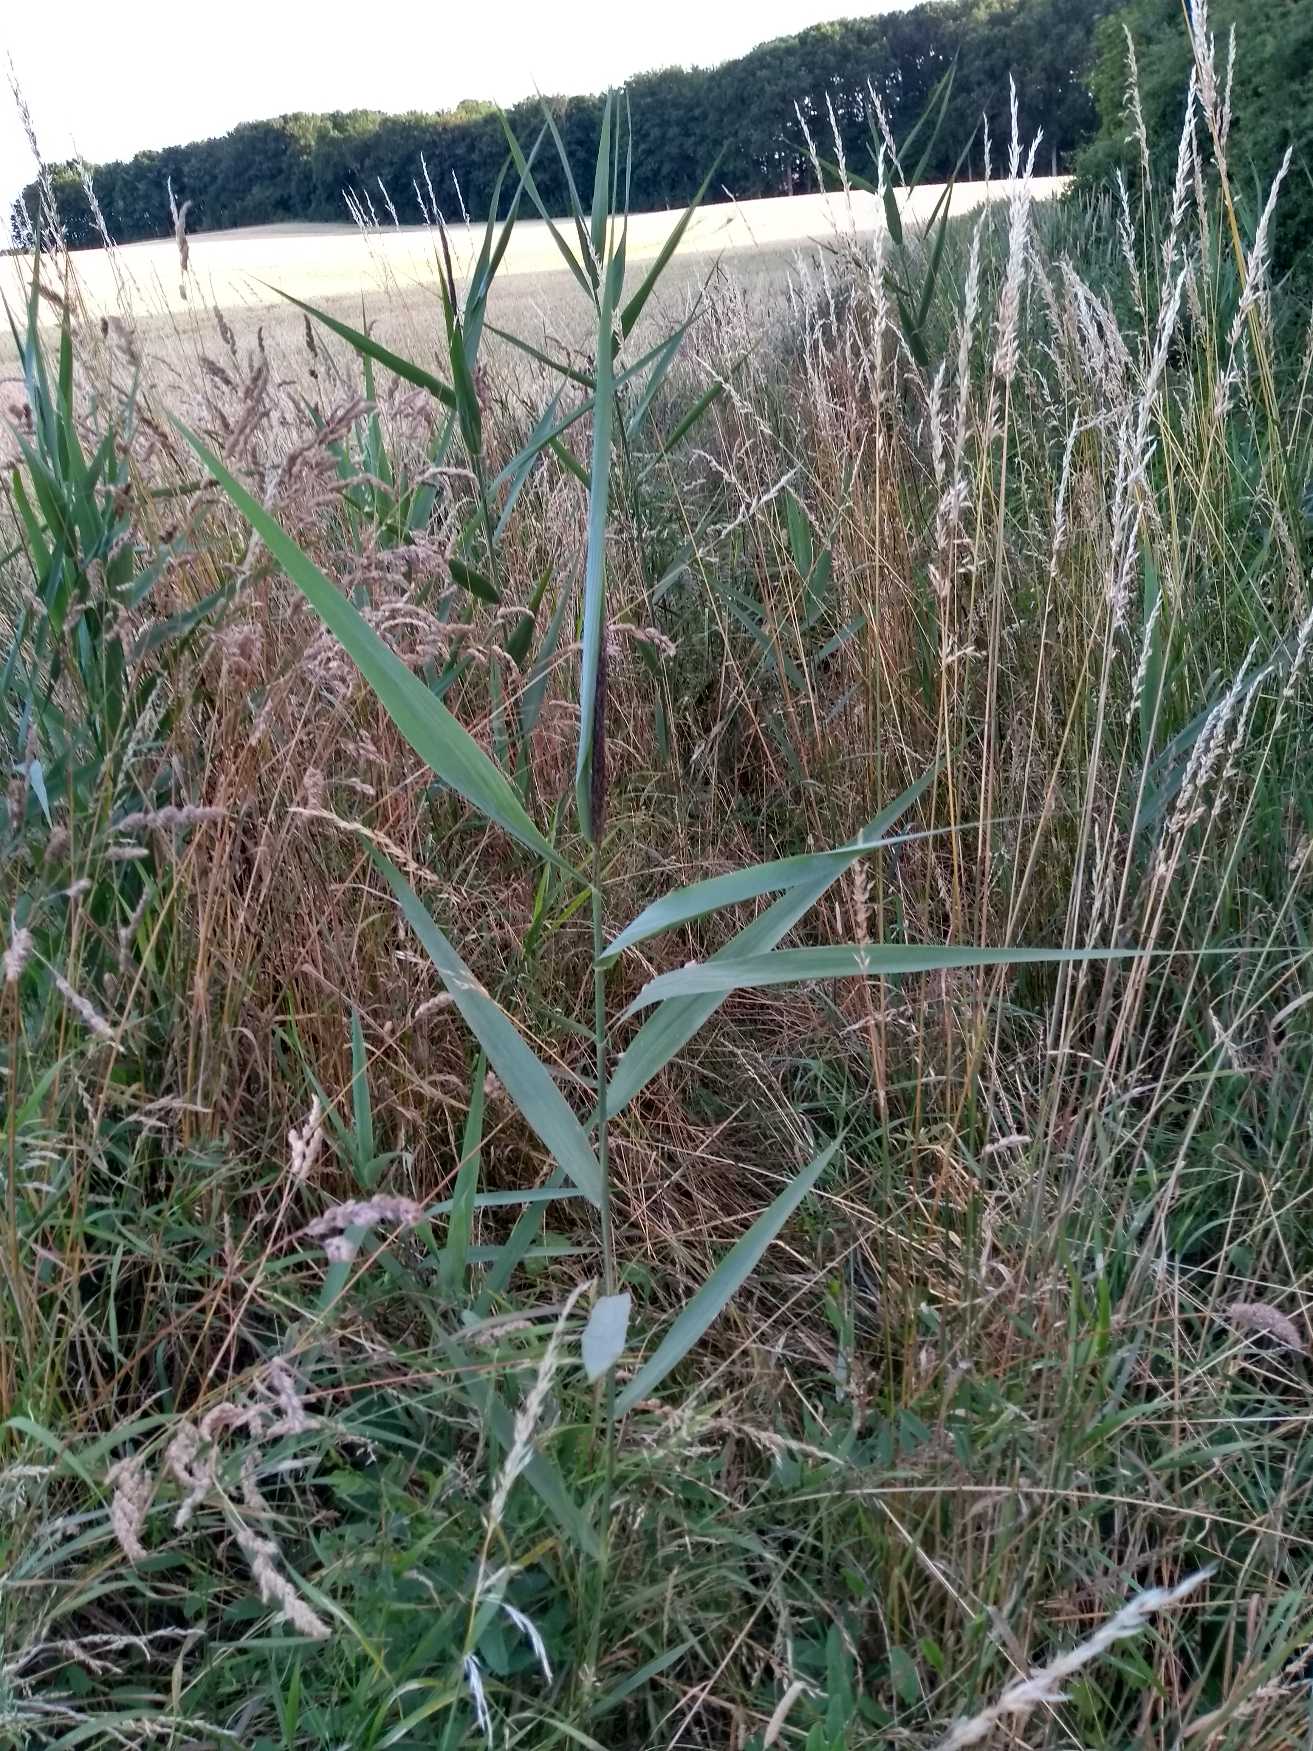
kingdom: Plantae
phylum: Tracheophyta
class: Liliopsida
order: Poales
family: Poaceae
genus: Phragmites
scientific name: Phragmites australis
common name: Tagrør
